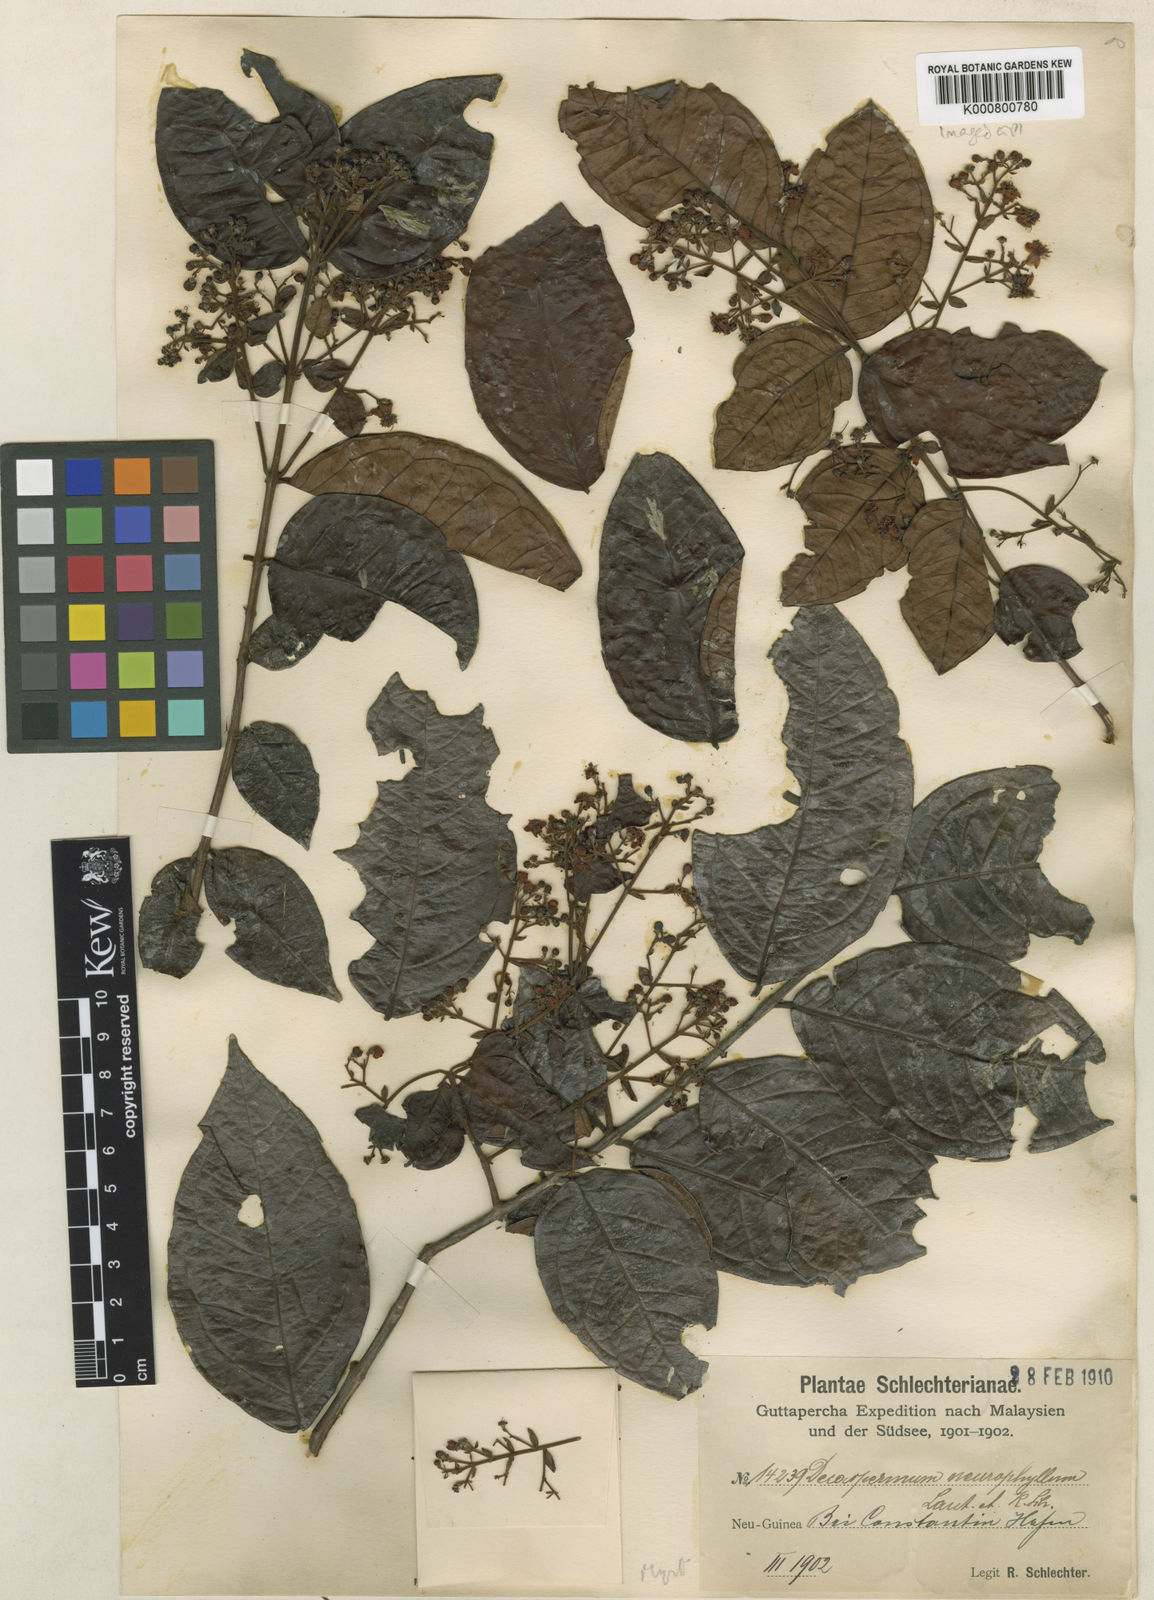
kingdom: Plantae
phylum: Tracheophyta
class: Magnoliopsida
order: Myrtales
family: Myrtaceae
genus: Decaspermum
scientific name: Decaspermum neurophyllum
